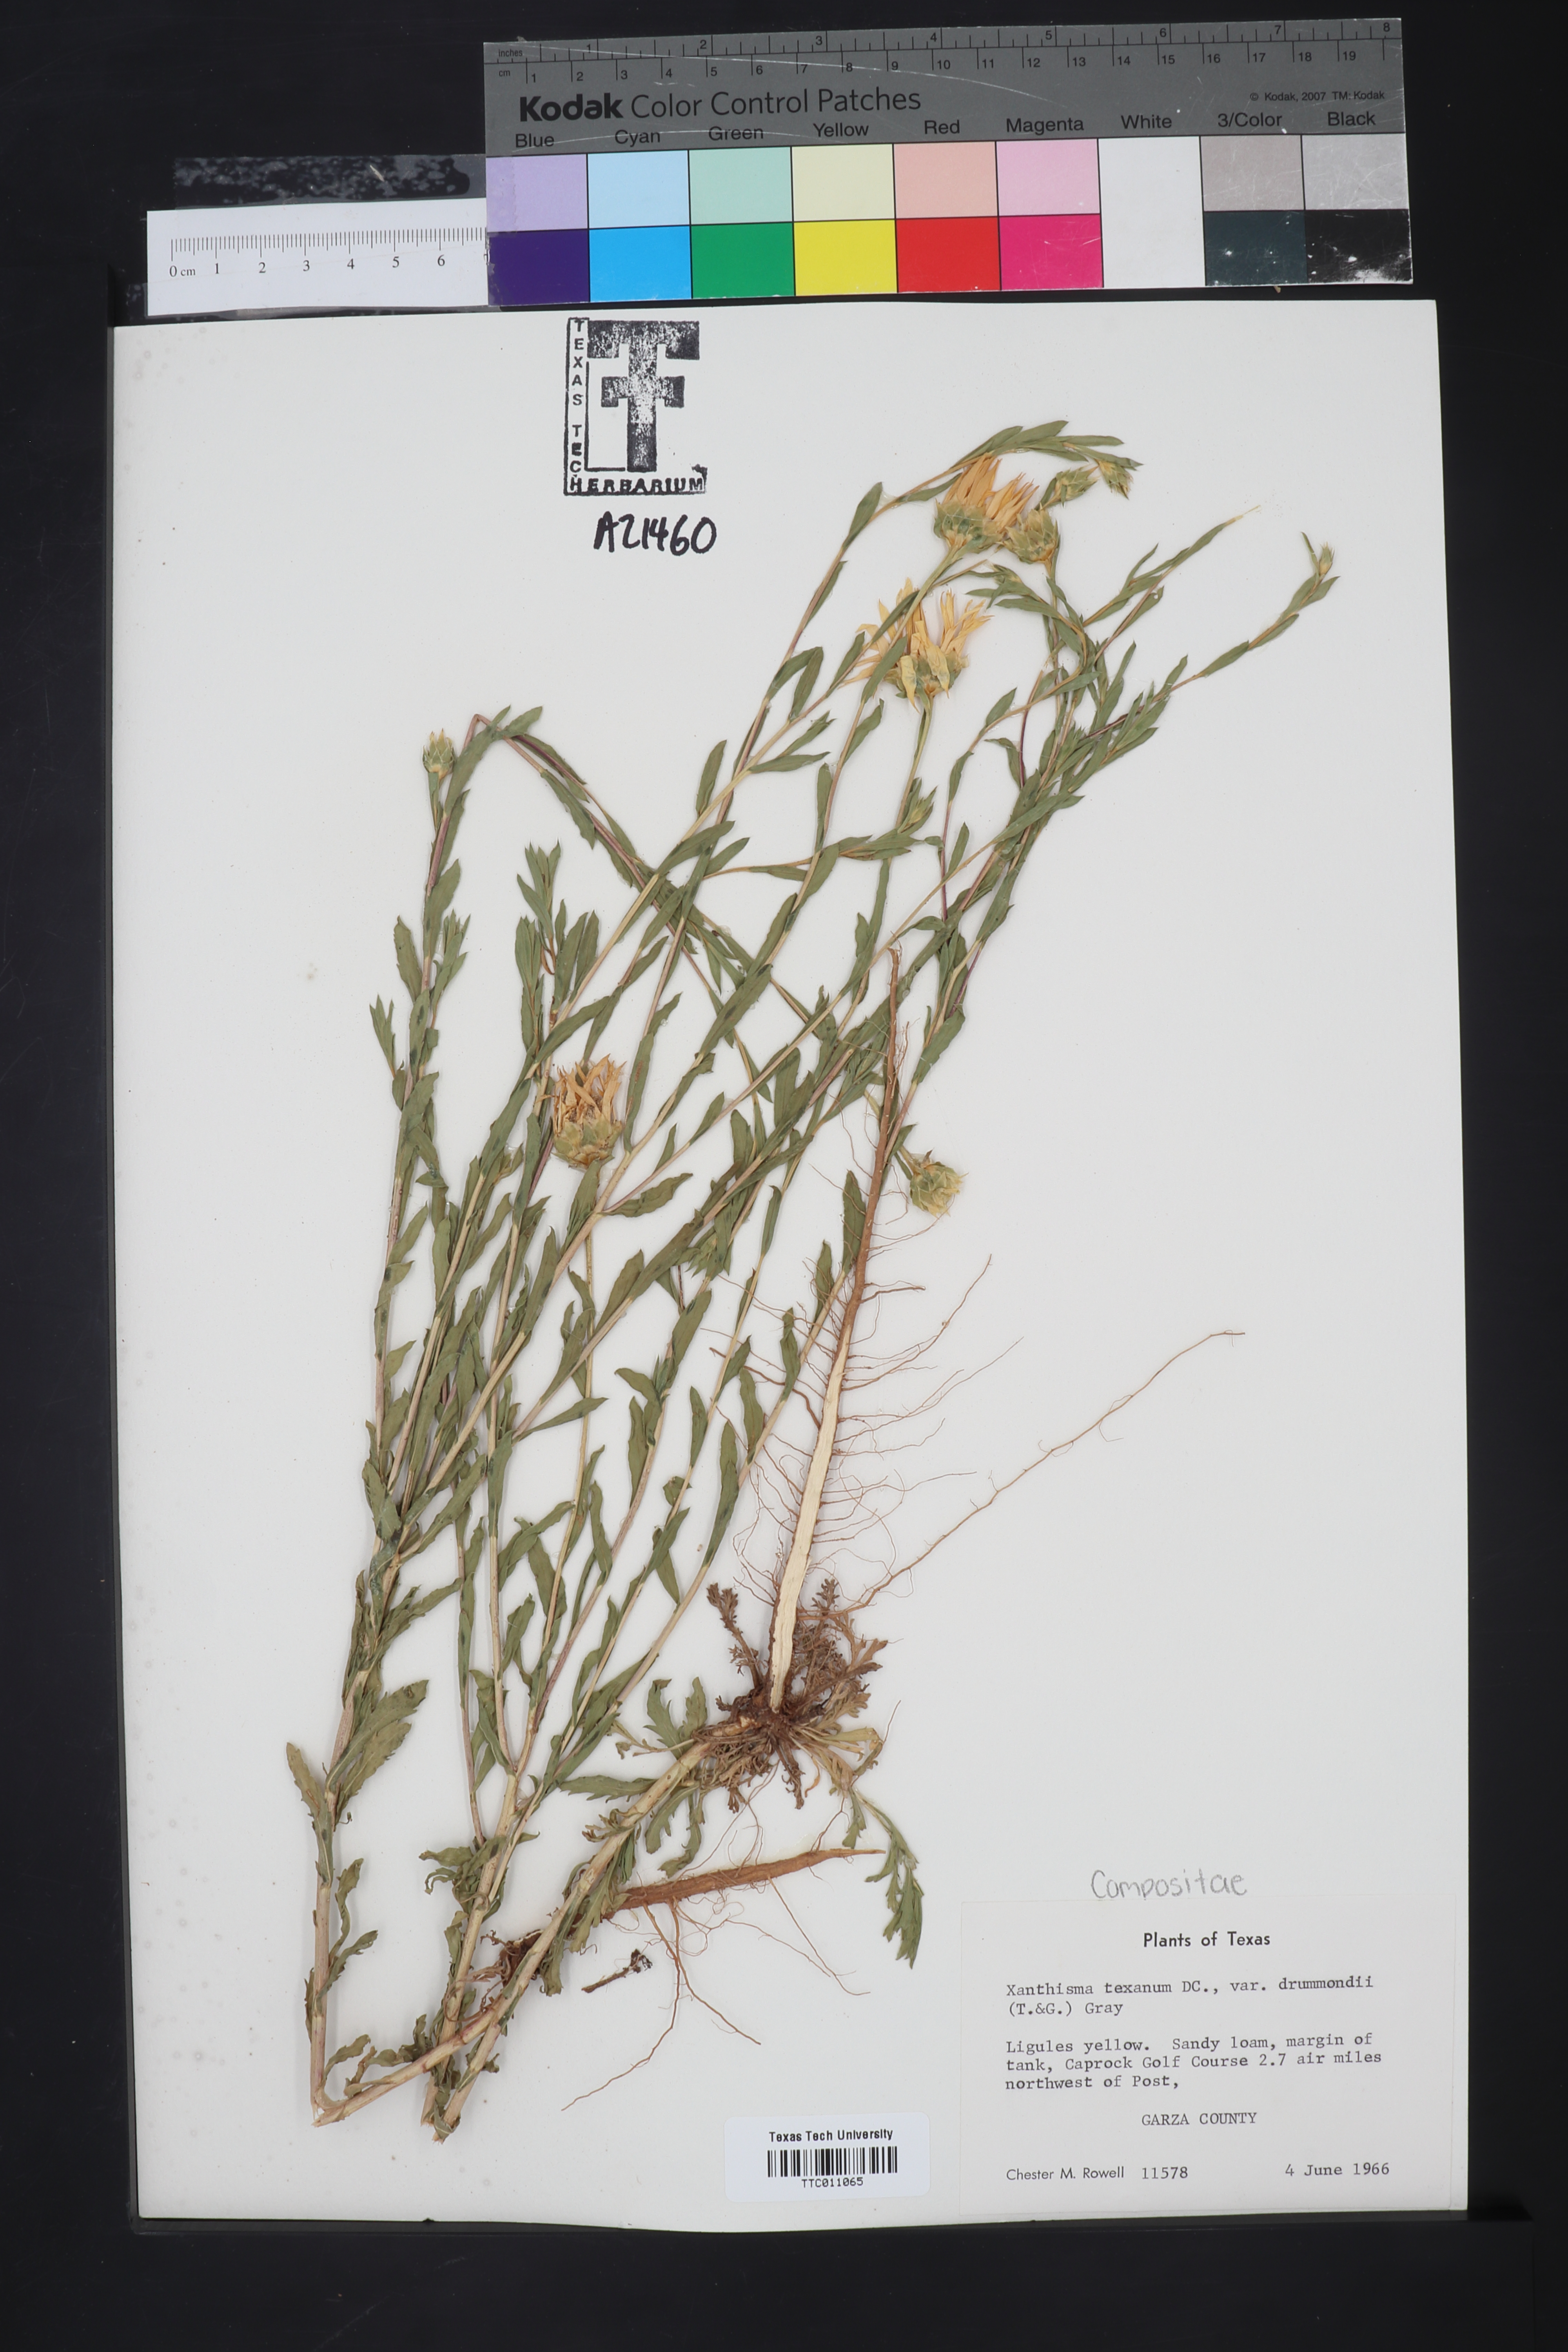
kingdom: Plantae
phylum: Tracheophyta
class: Magnoliopsida
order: Asterales
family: Asteraceae
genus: Xanthisma
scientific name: Xanthisma texanum
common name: Texas sleepy daisy
